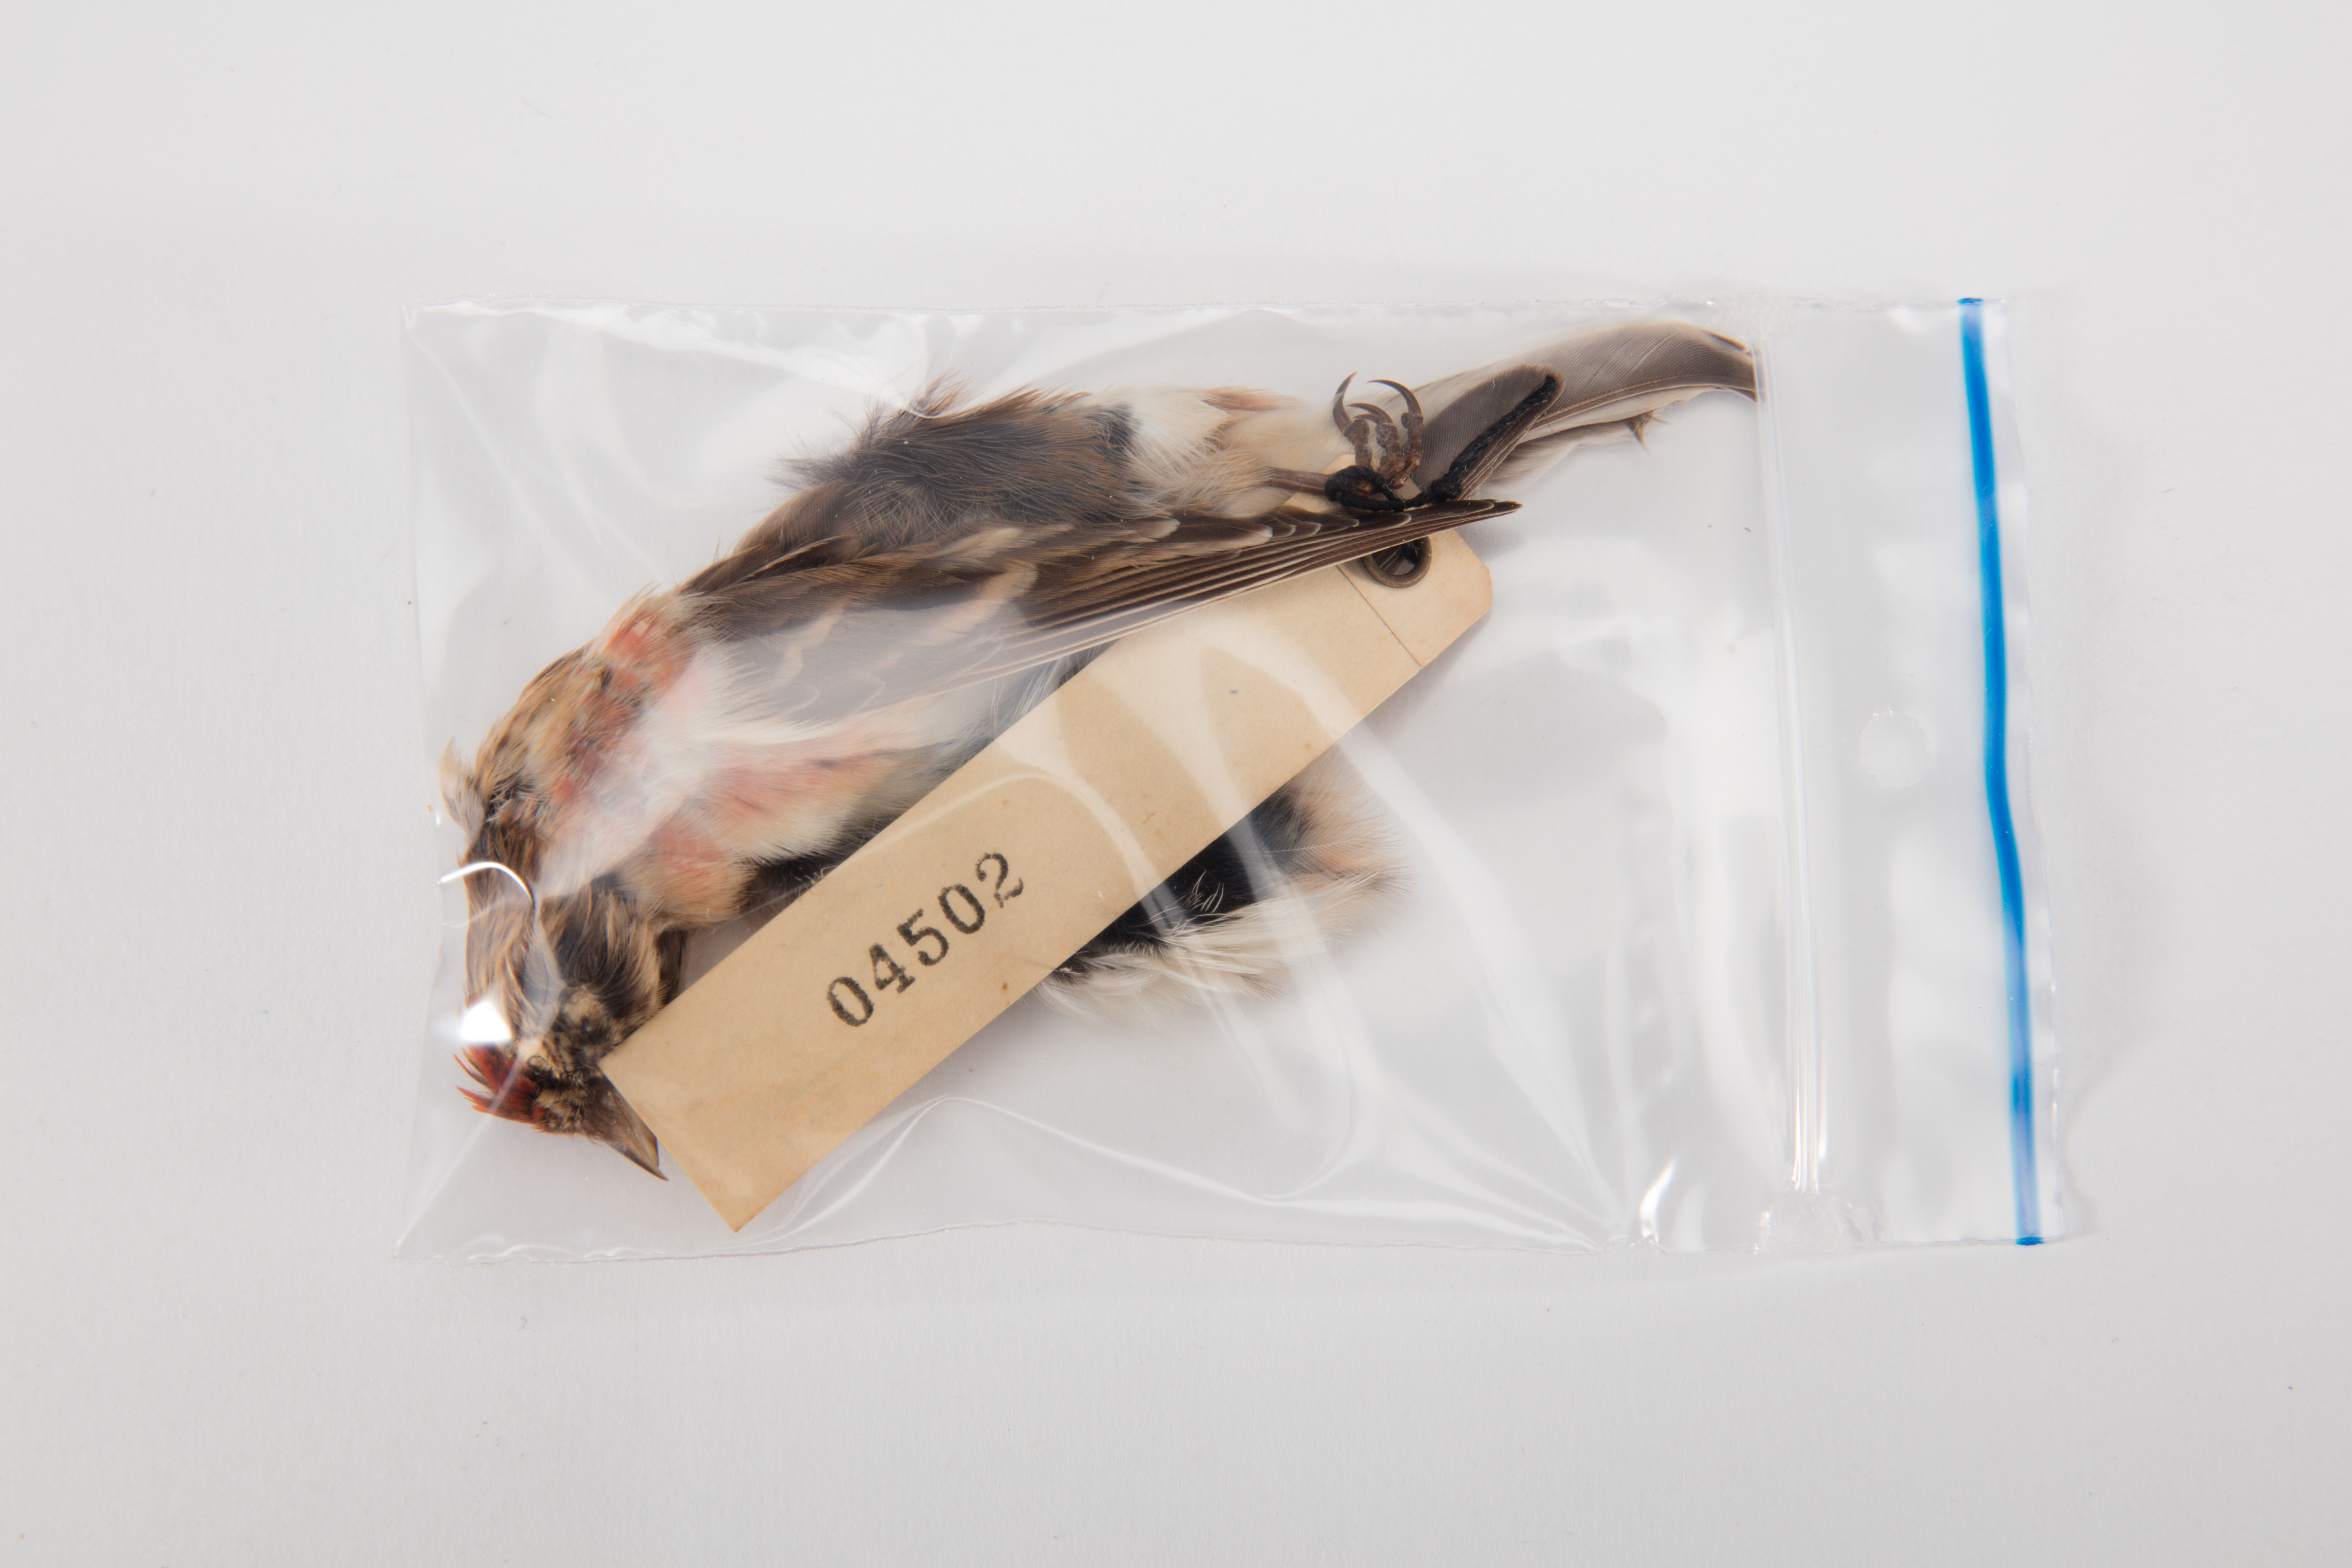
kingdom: Animalia
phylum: Chordata
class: Aves
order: Passeriformes
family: Fringillidae
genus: Acanthis
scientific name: Acanthis flammea
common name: Common redpoll
